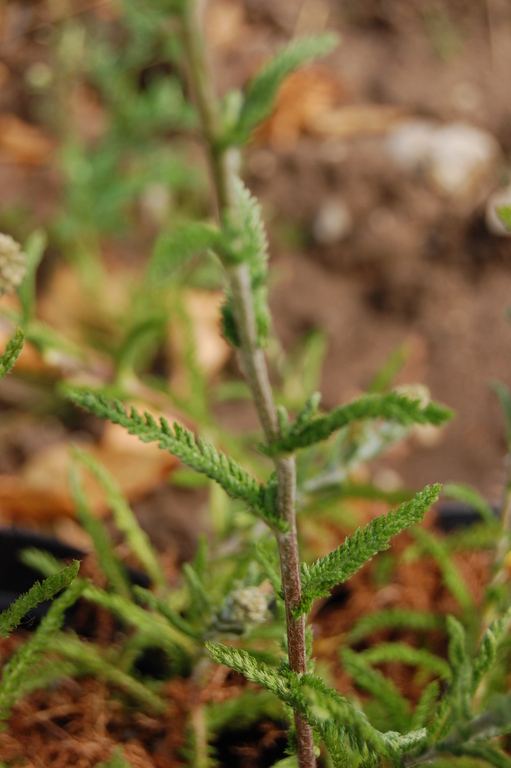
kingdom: Plantae
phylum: Tracheophyta
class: Magnoliopsida
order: Asterales
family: Asteraceae
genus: Achillea
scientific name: Achillea millefolium
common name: Yarrow
